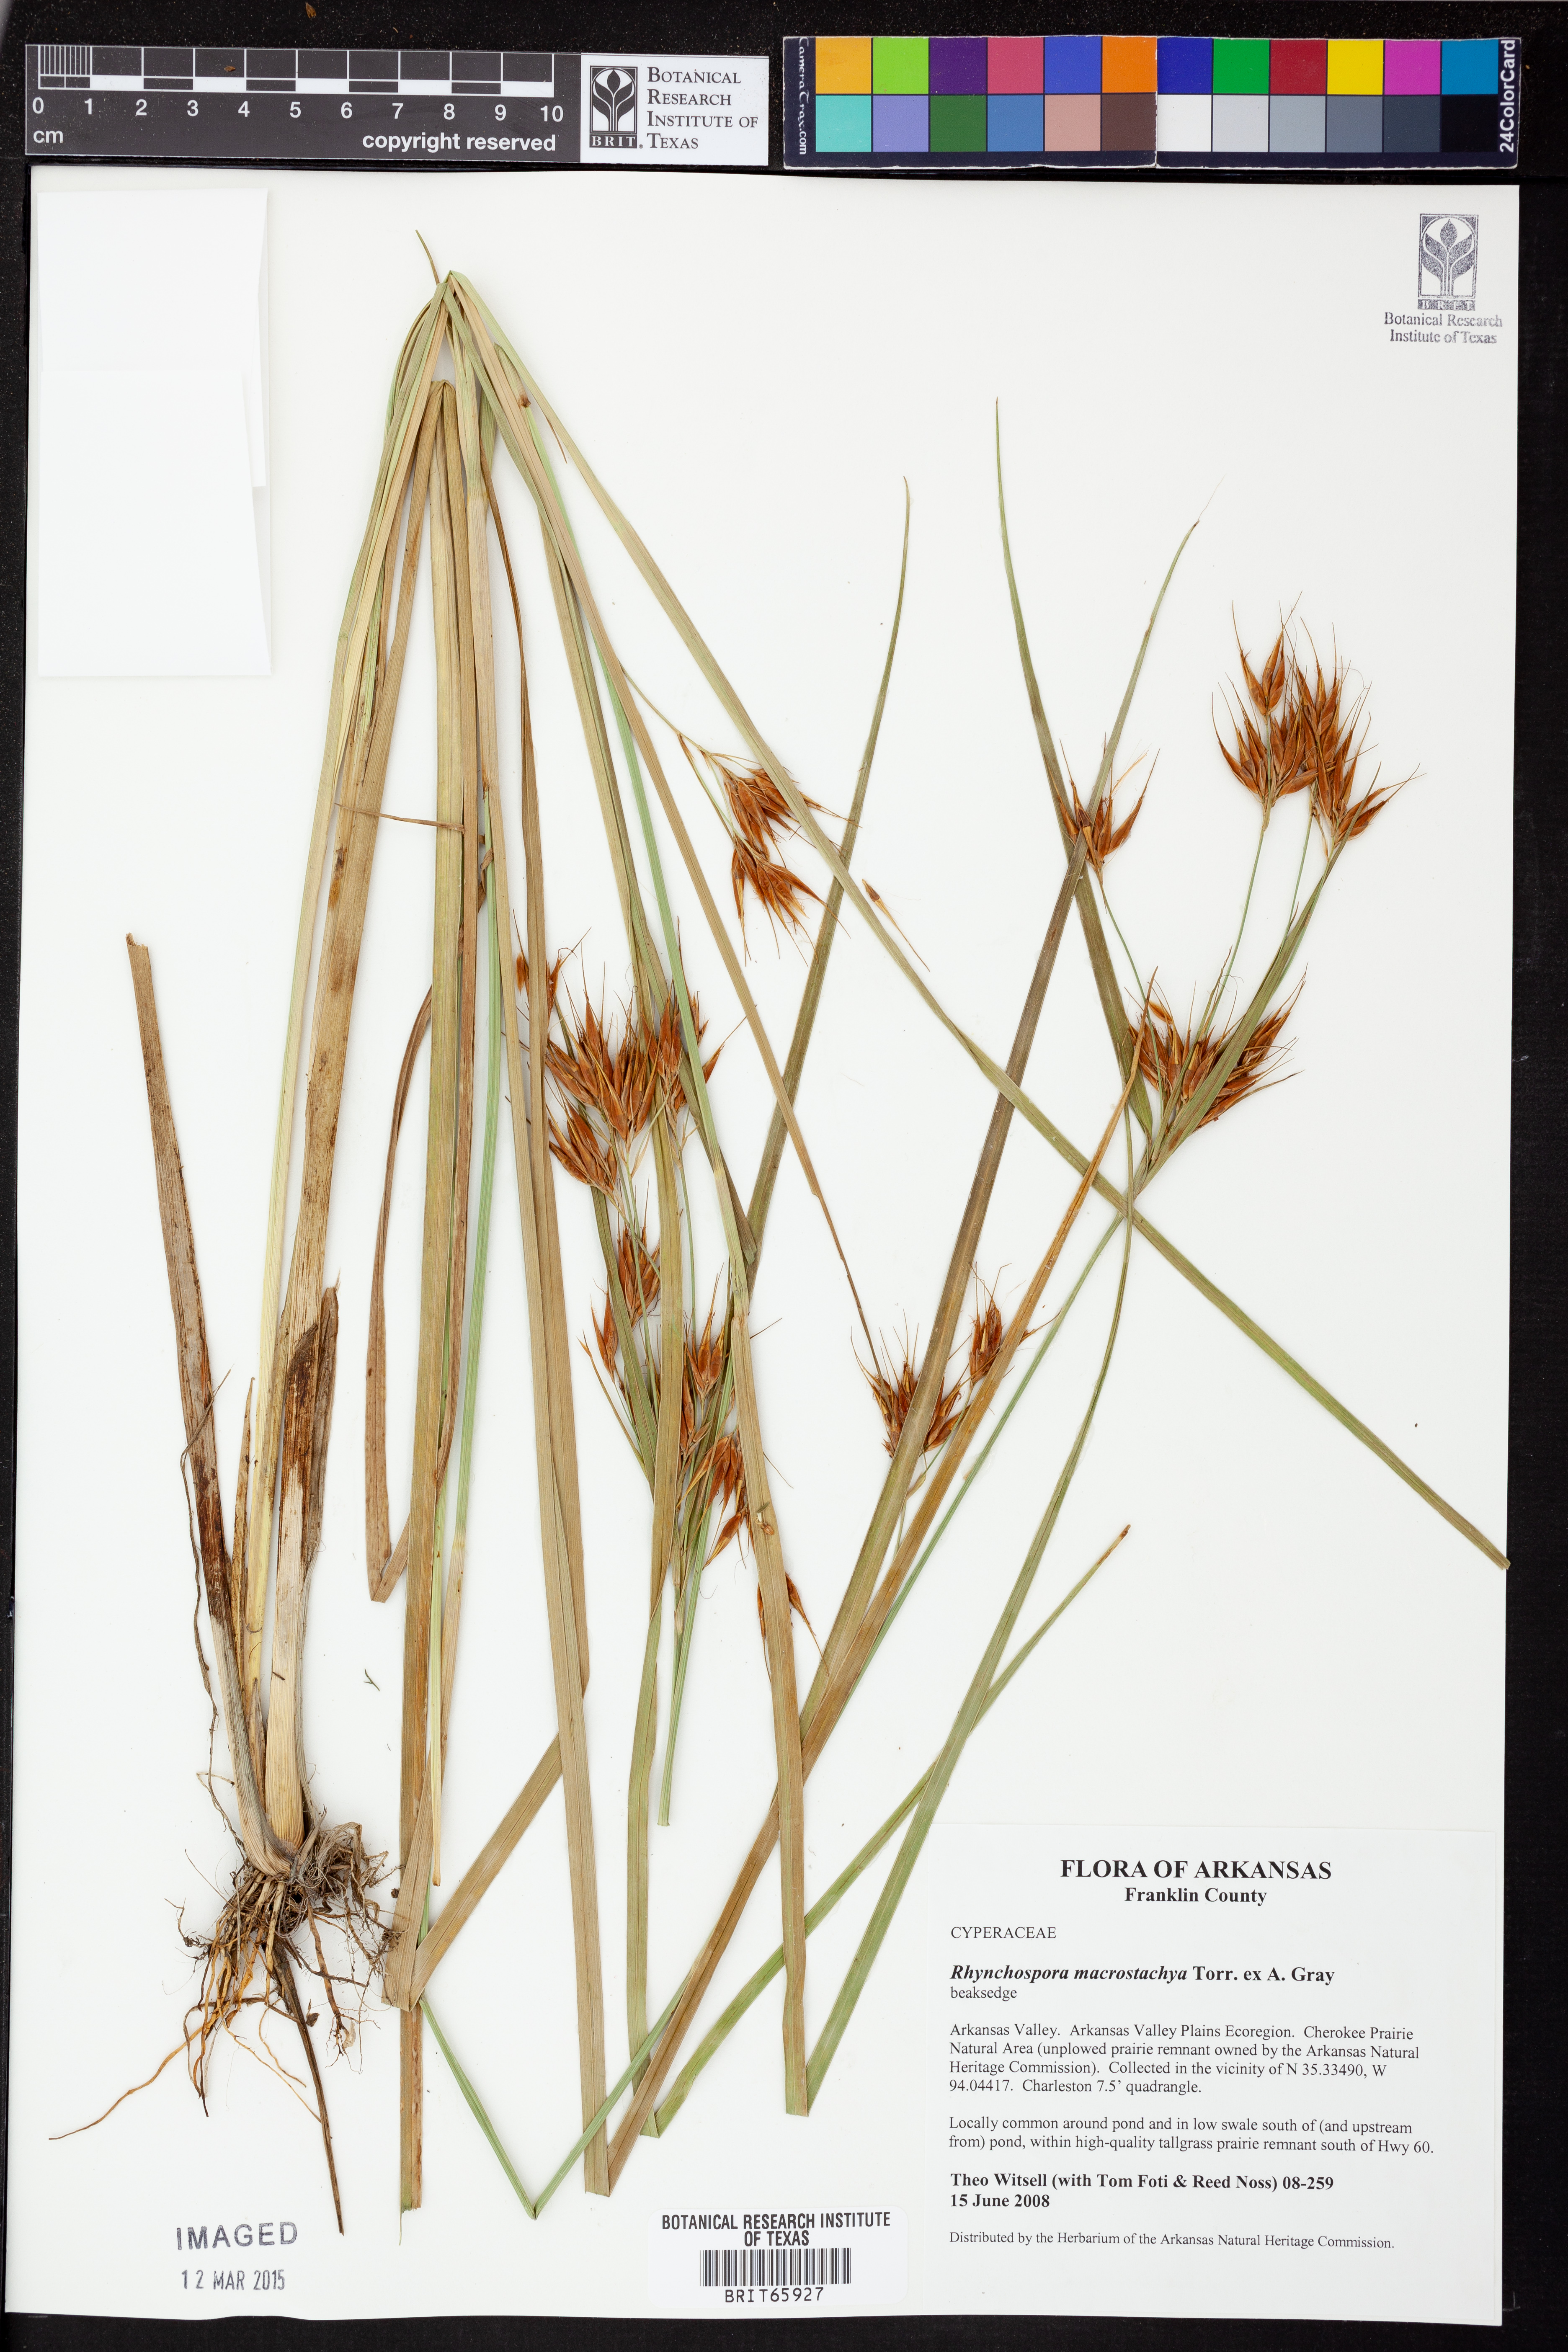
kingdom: Plantae
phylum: Tracheophyta
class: Liliopsida
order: Poales
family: Cyperaceae
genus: Rhynchospora
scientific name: Rhynchospora macrostachya
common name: Tall beakrush
